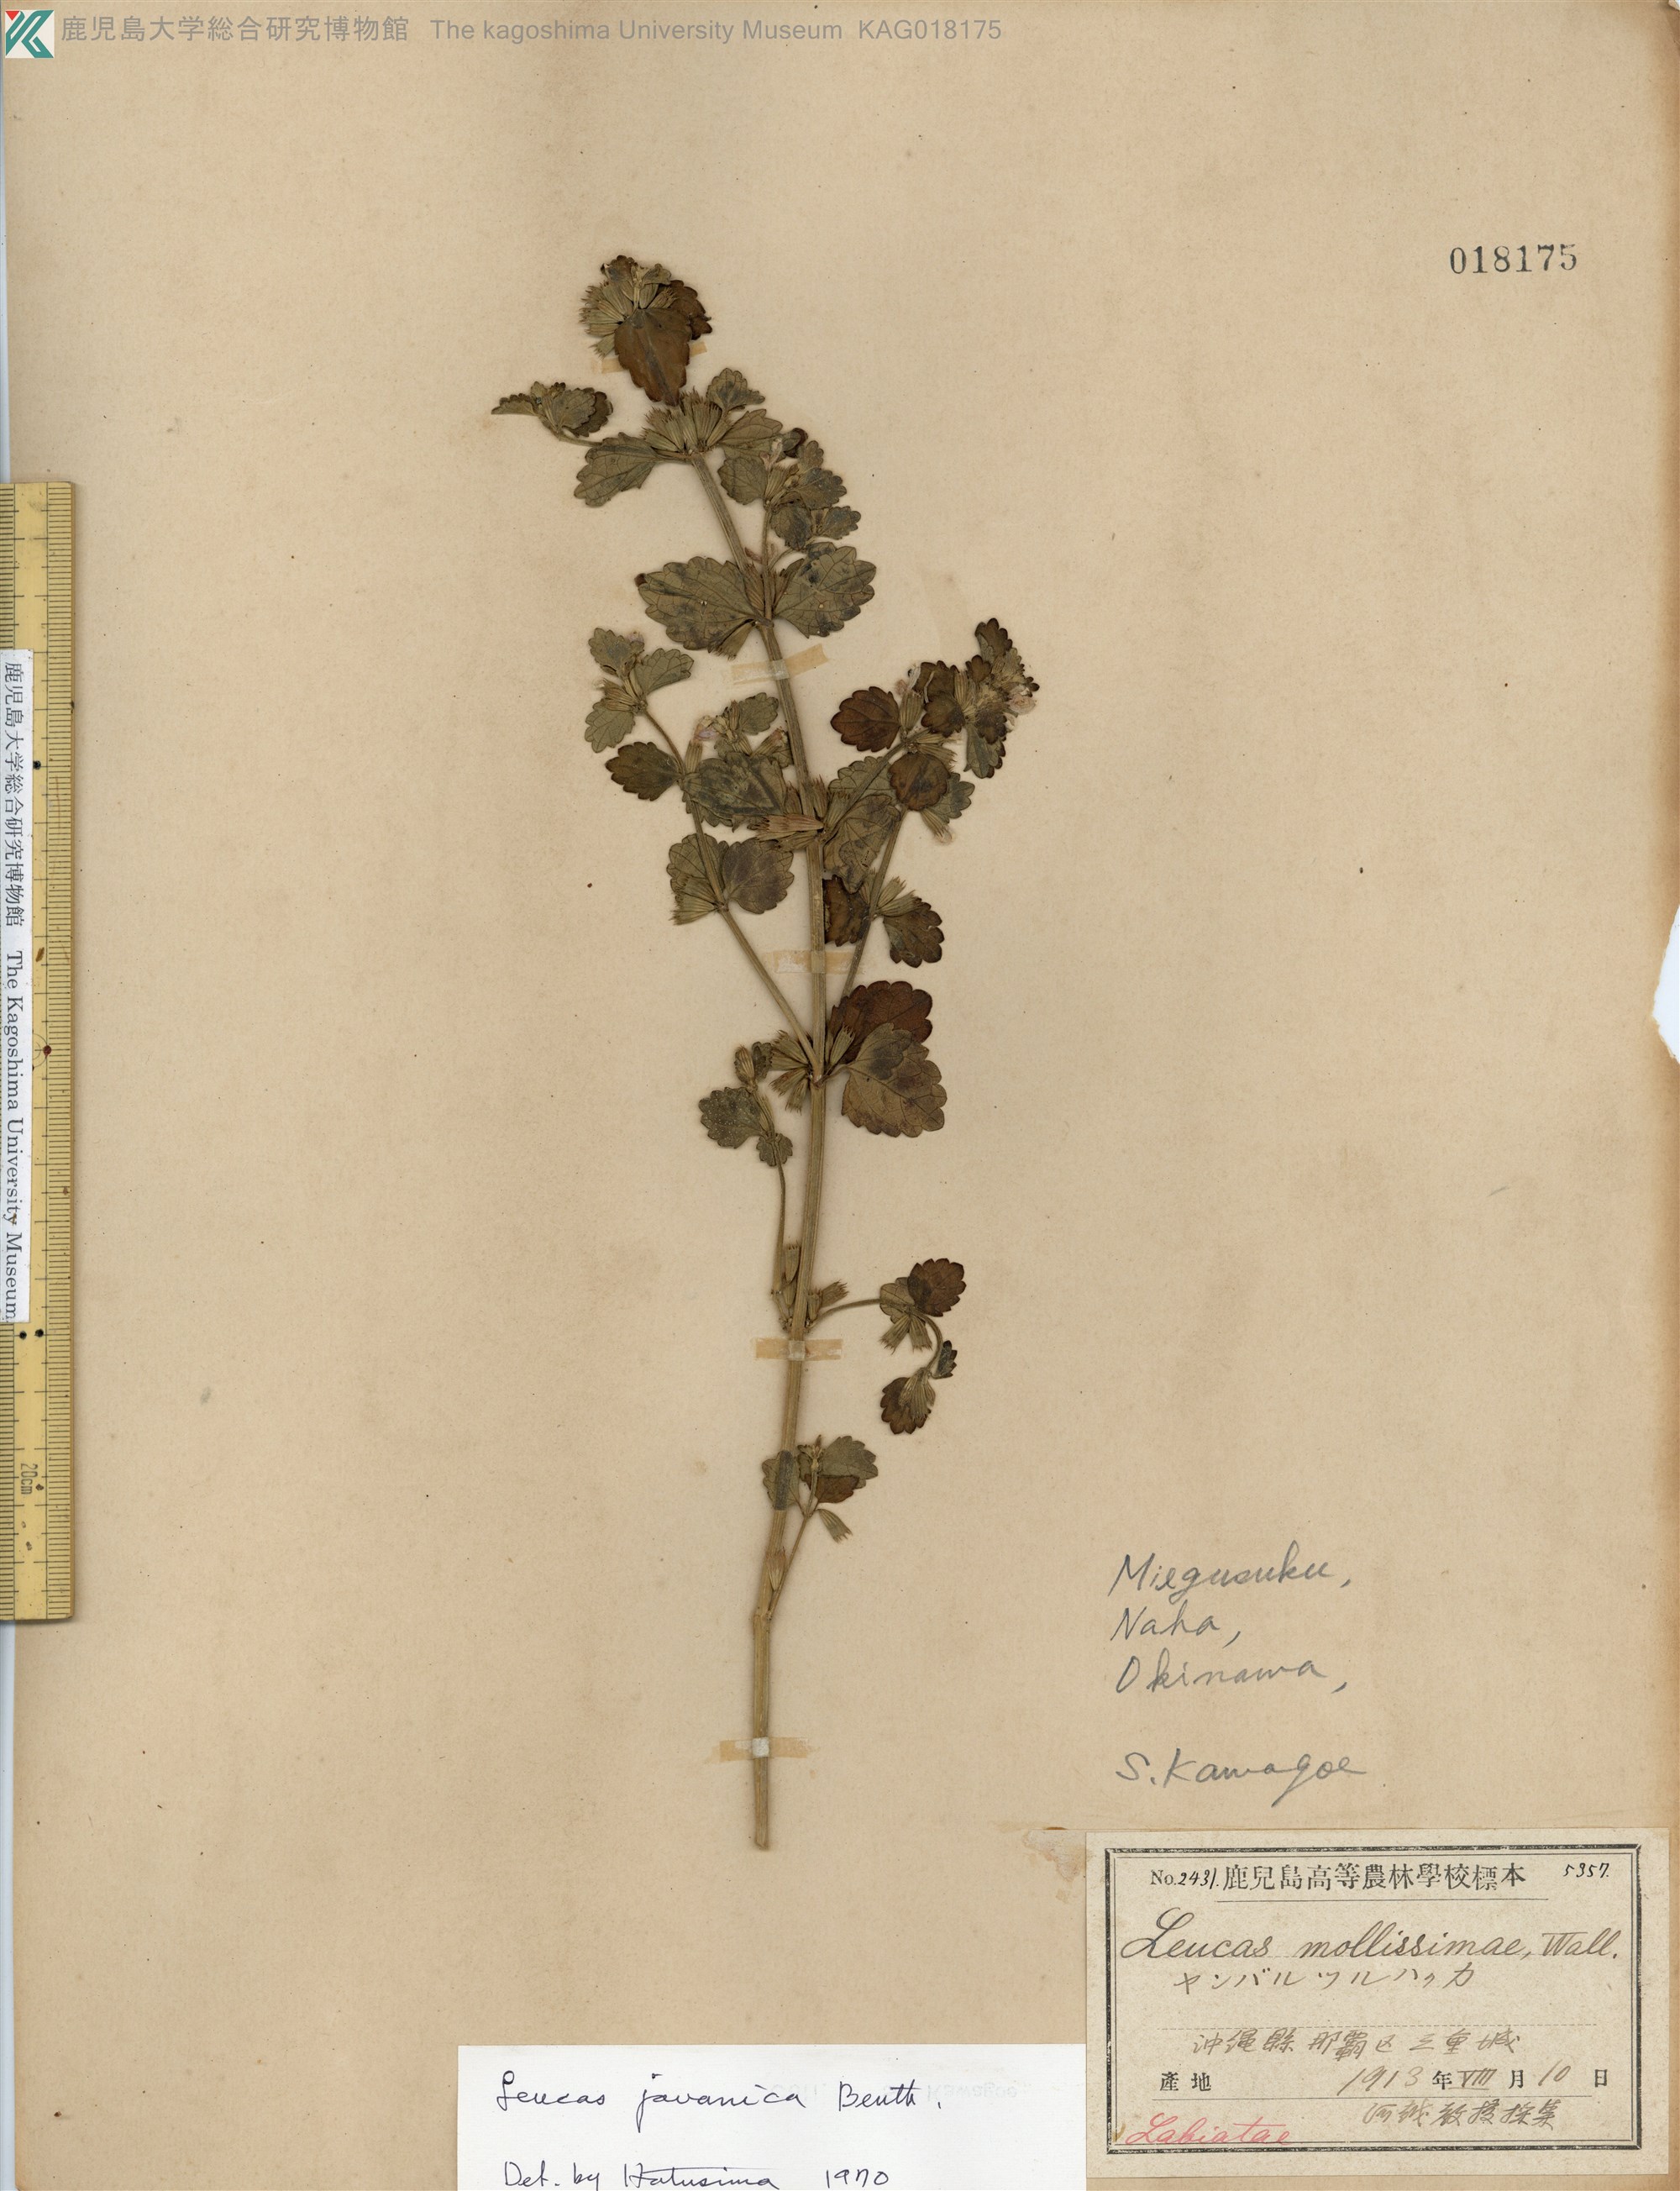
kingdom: Plantae
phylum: Tracheophyta
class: Magnoliopsida
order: Lamiales
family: Lamiaceae
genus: Leucas
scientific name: Leucas chinensis
